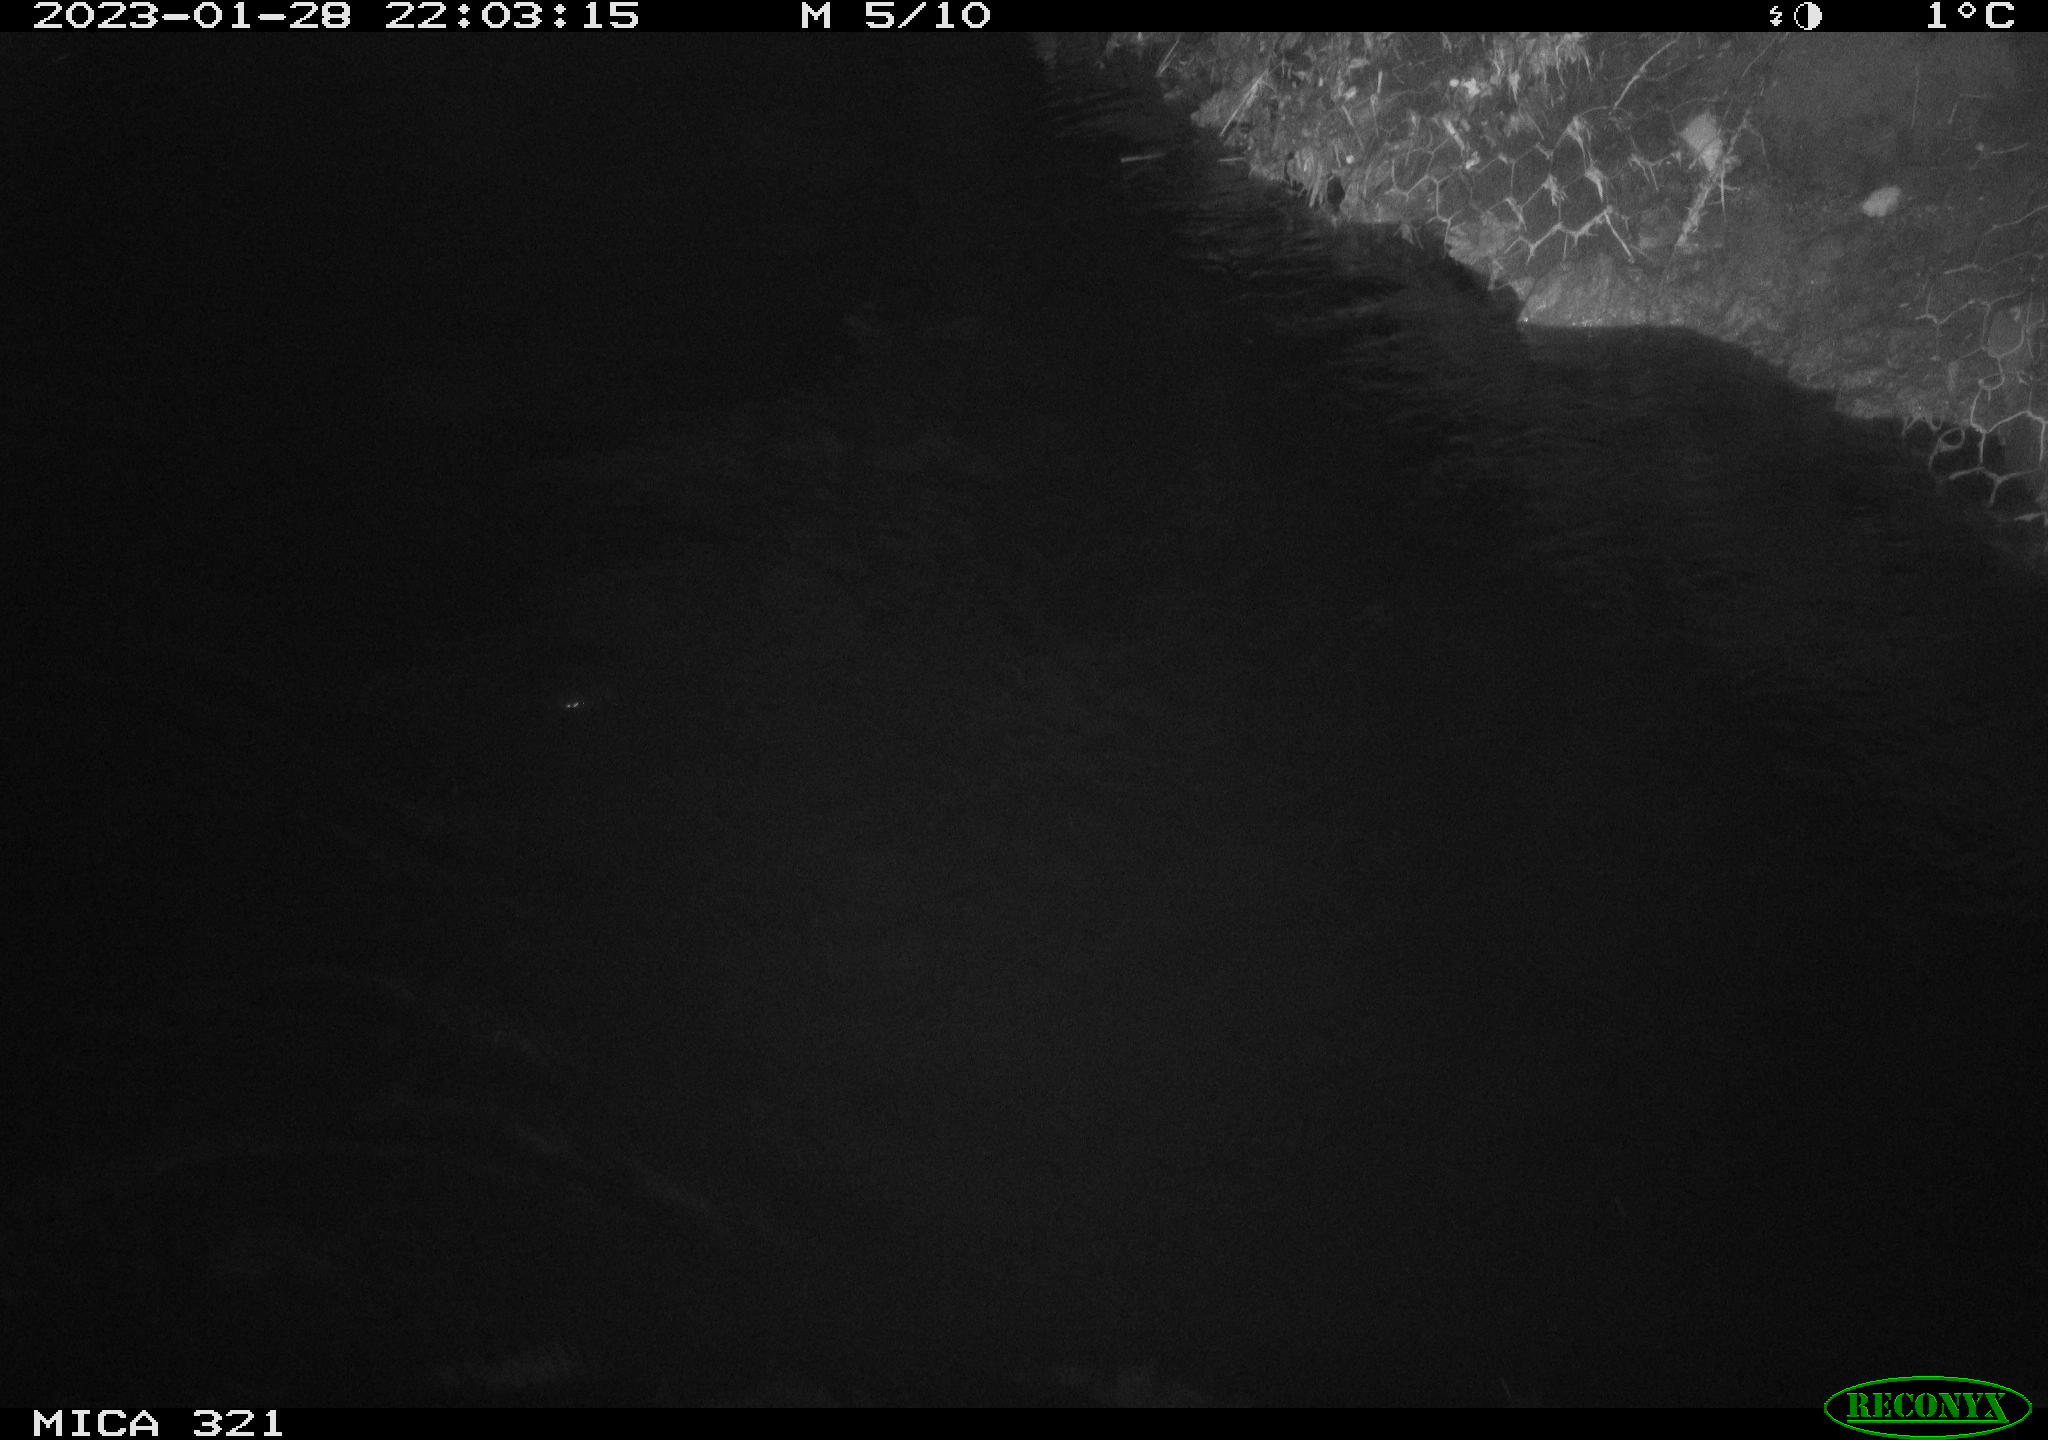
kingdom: Animalia
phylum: Chordata
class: Aves
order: Anseriformes
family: Anatidae
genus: Anas
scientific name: Anas
